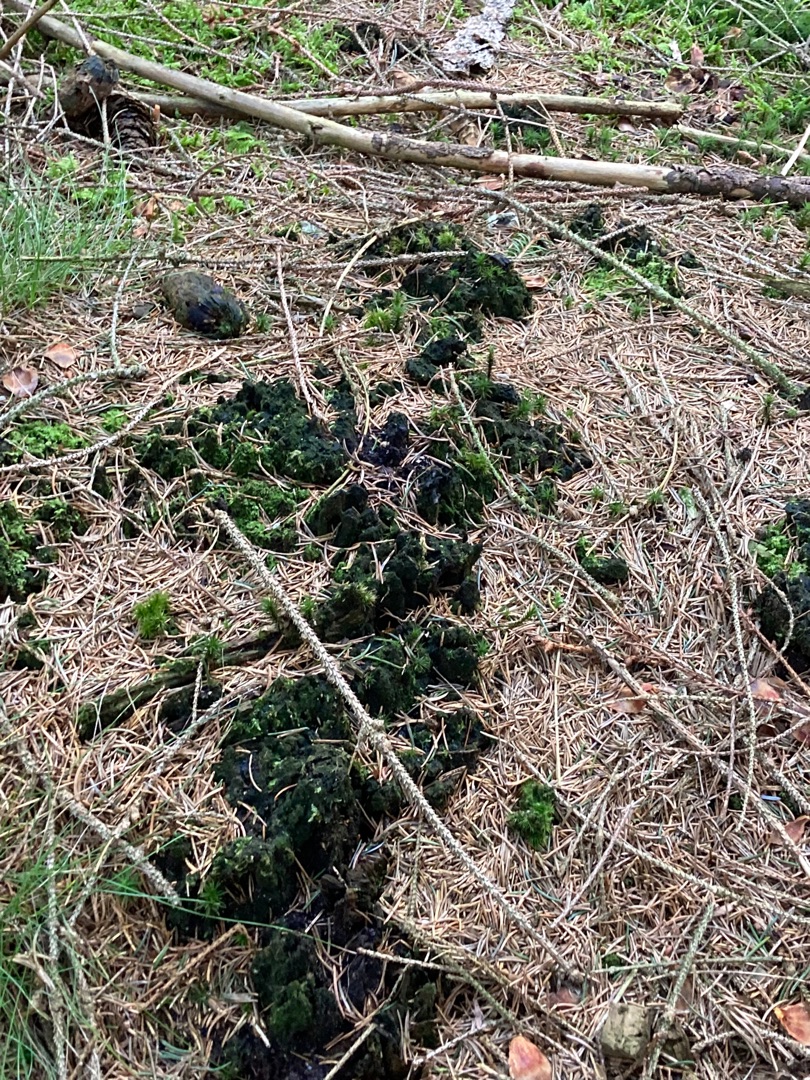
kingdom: Plantae
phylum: Bryophyta
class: Bryopsida
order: Buxbaumiales
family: Buxbaumiaceae
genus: Buxbaumia
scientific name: Buxbaumia viridis
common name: Grøn buxbaumia
